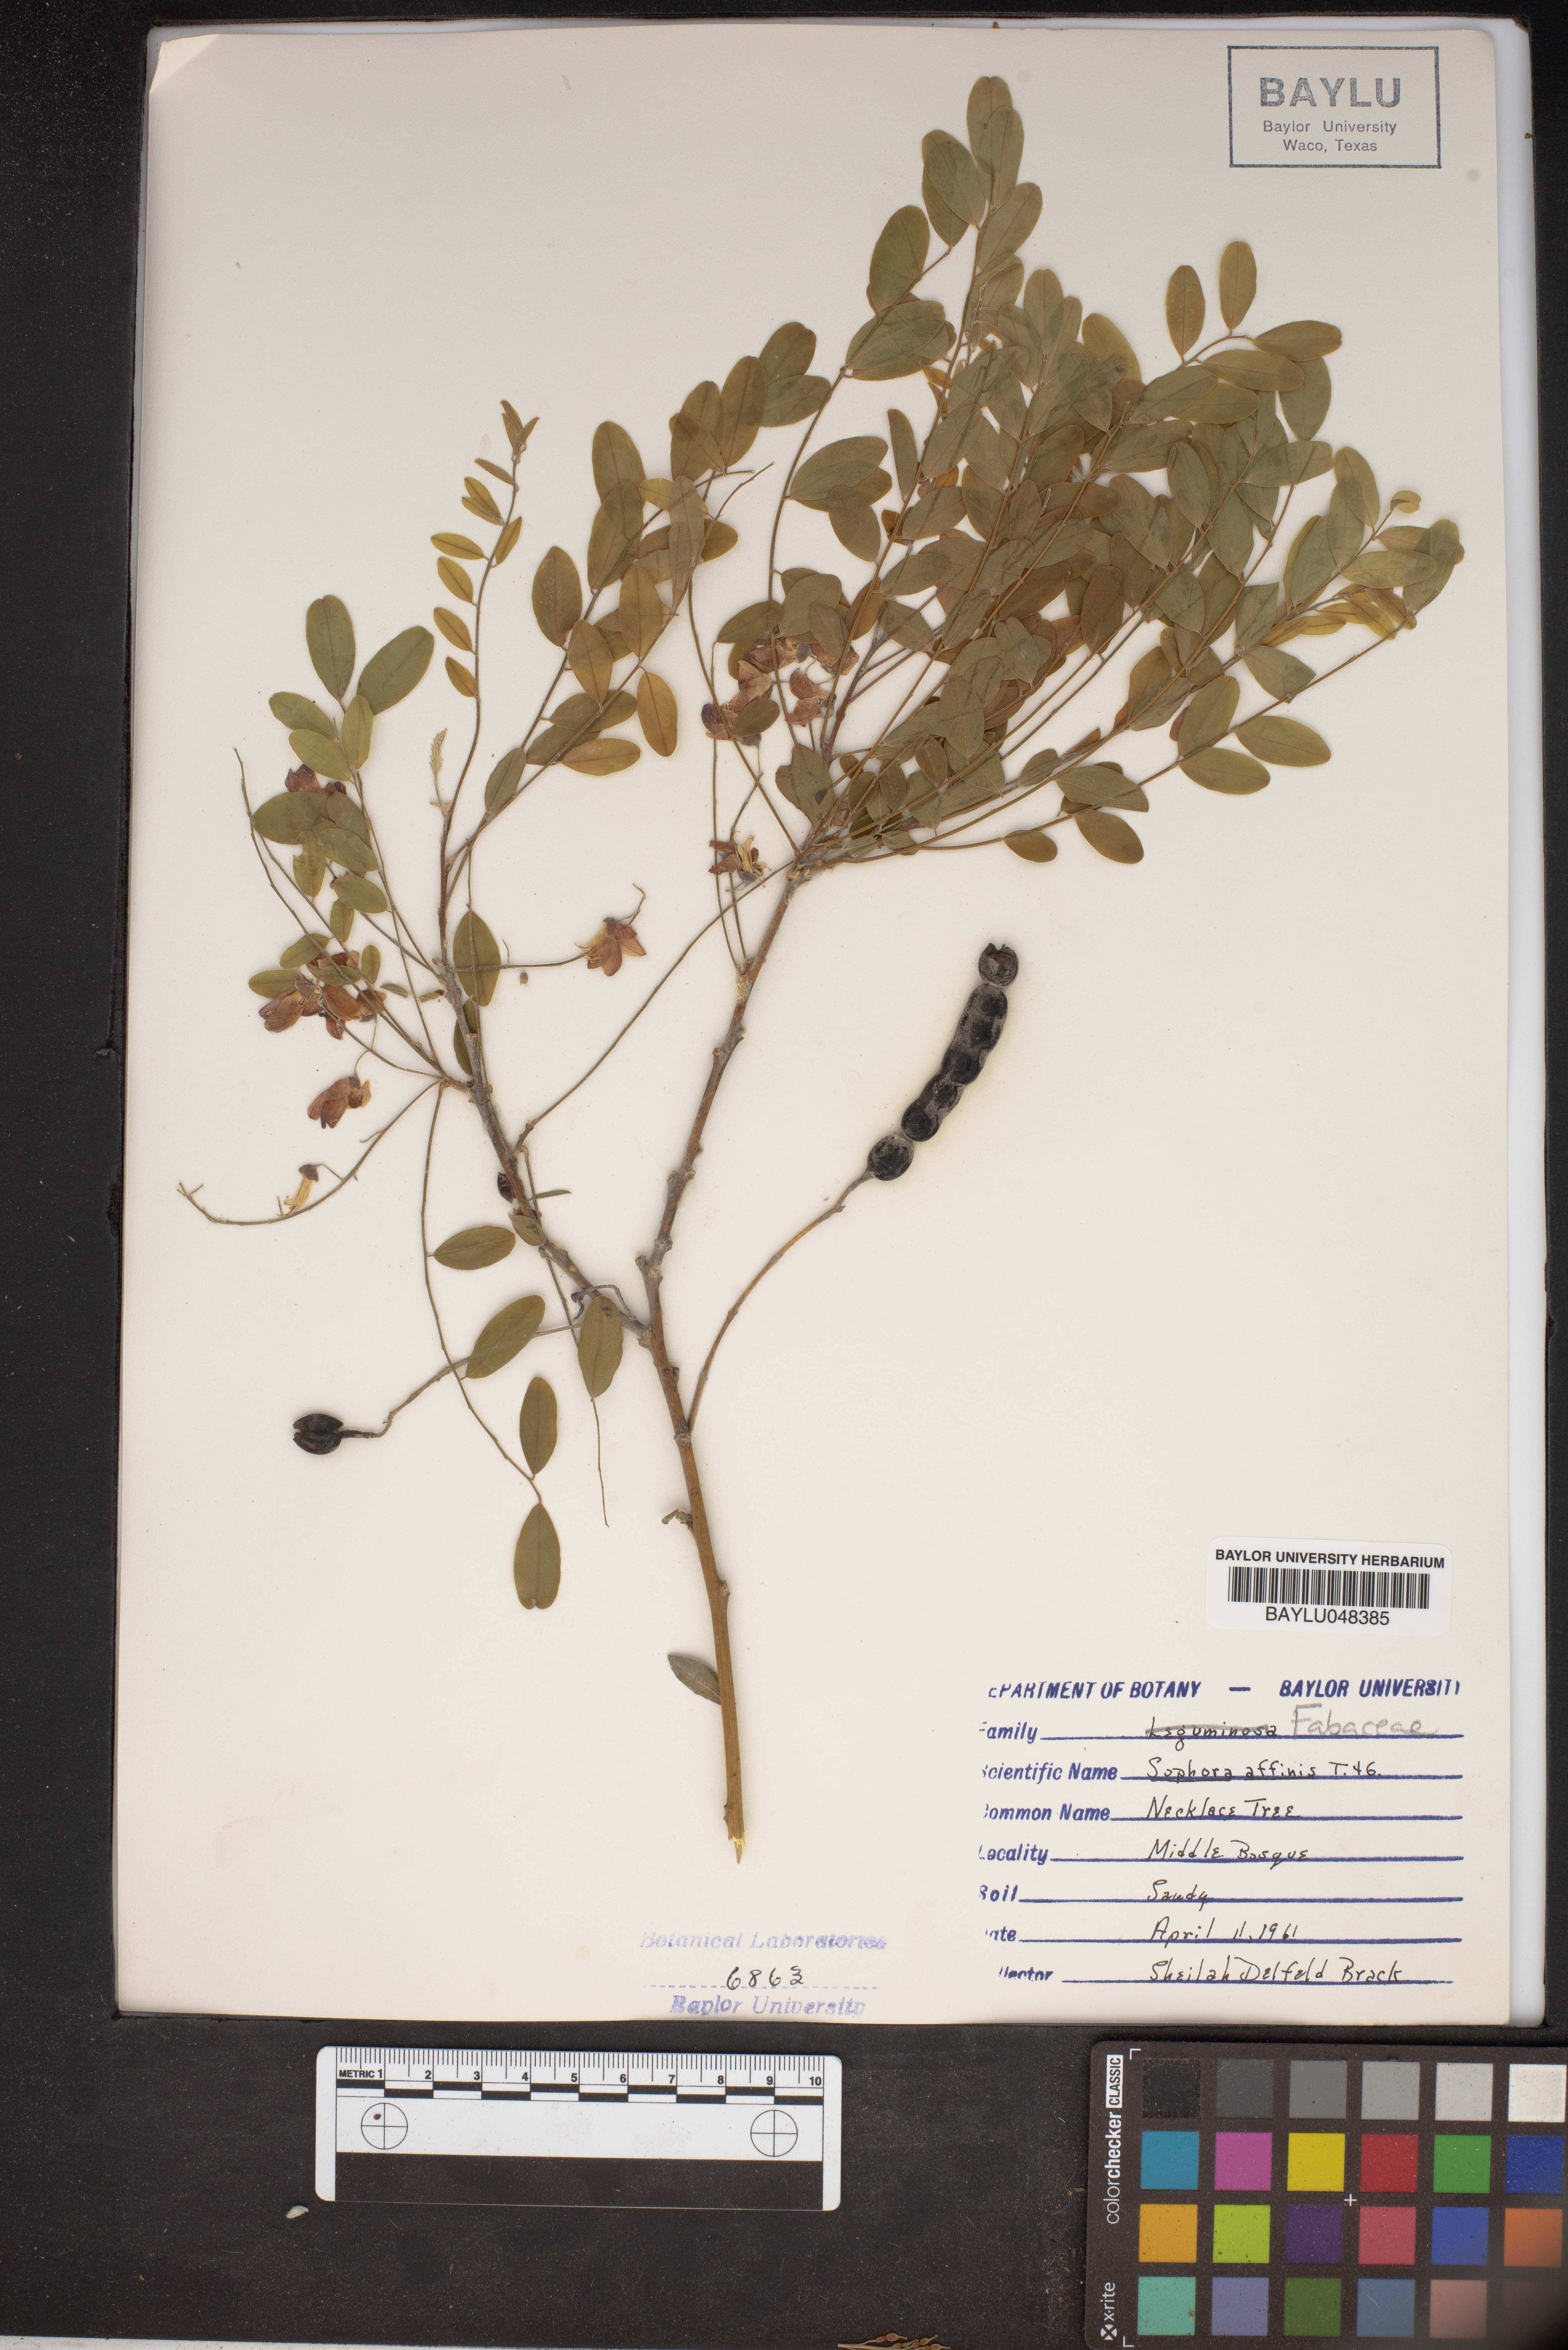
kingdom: Plantae
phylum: Tracheophyta
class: Magnoliopsida
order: Fabales
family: Fabaceae
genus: Styphnolobium
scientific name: Styphnolobium affine
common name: Texas sophora
